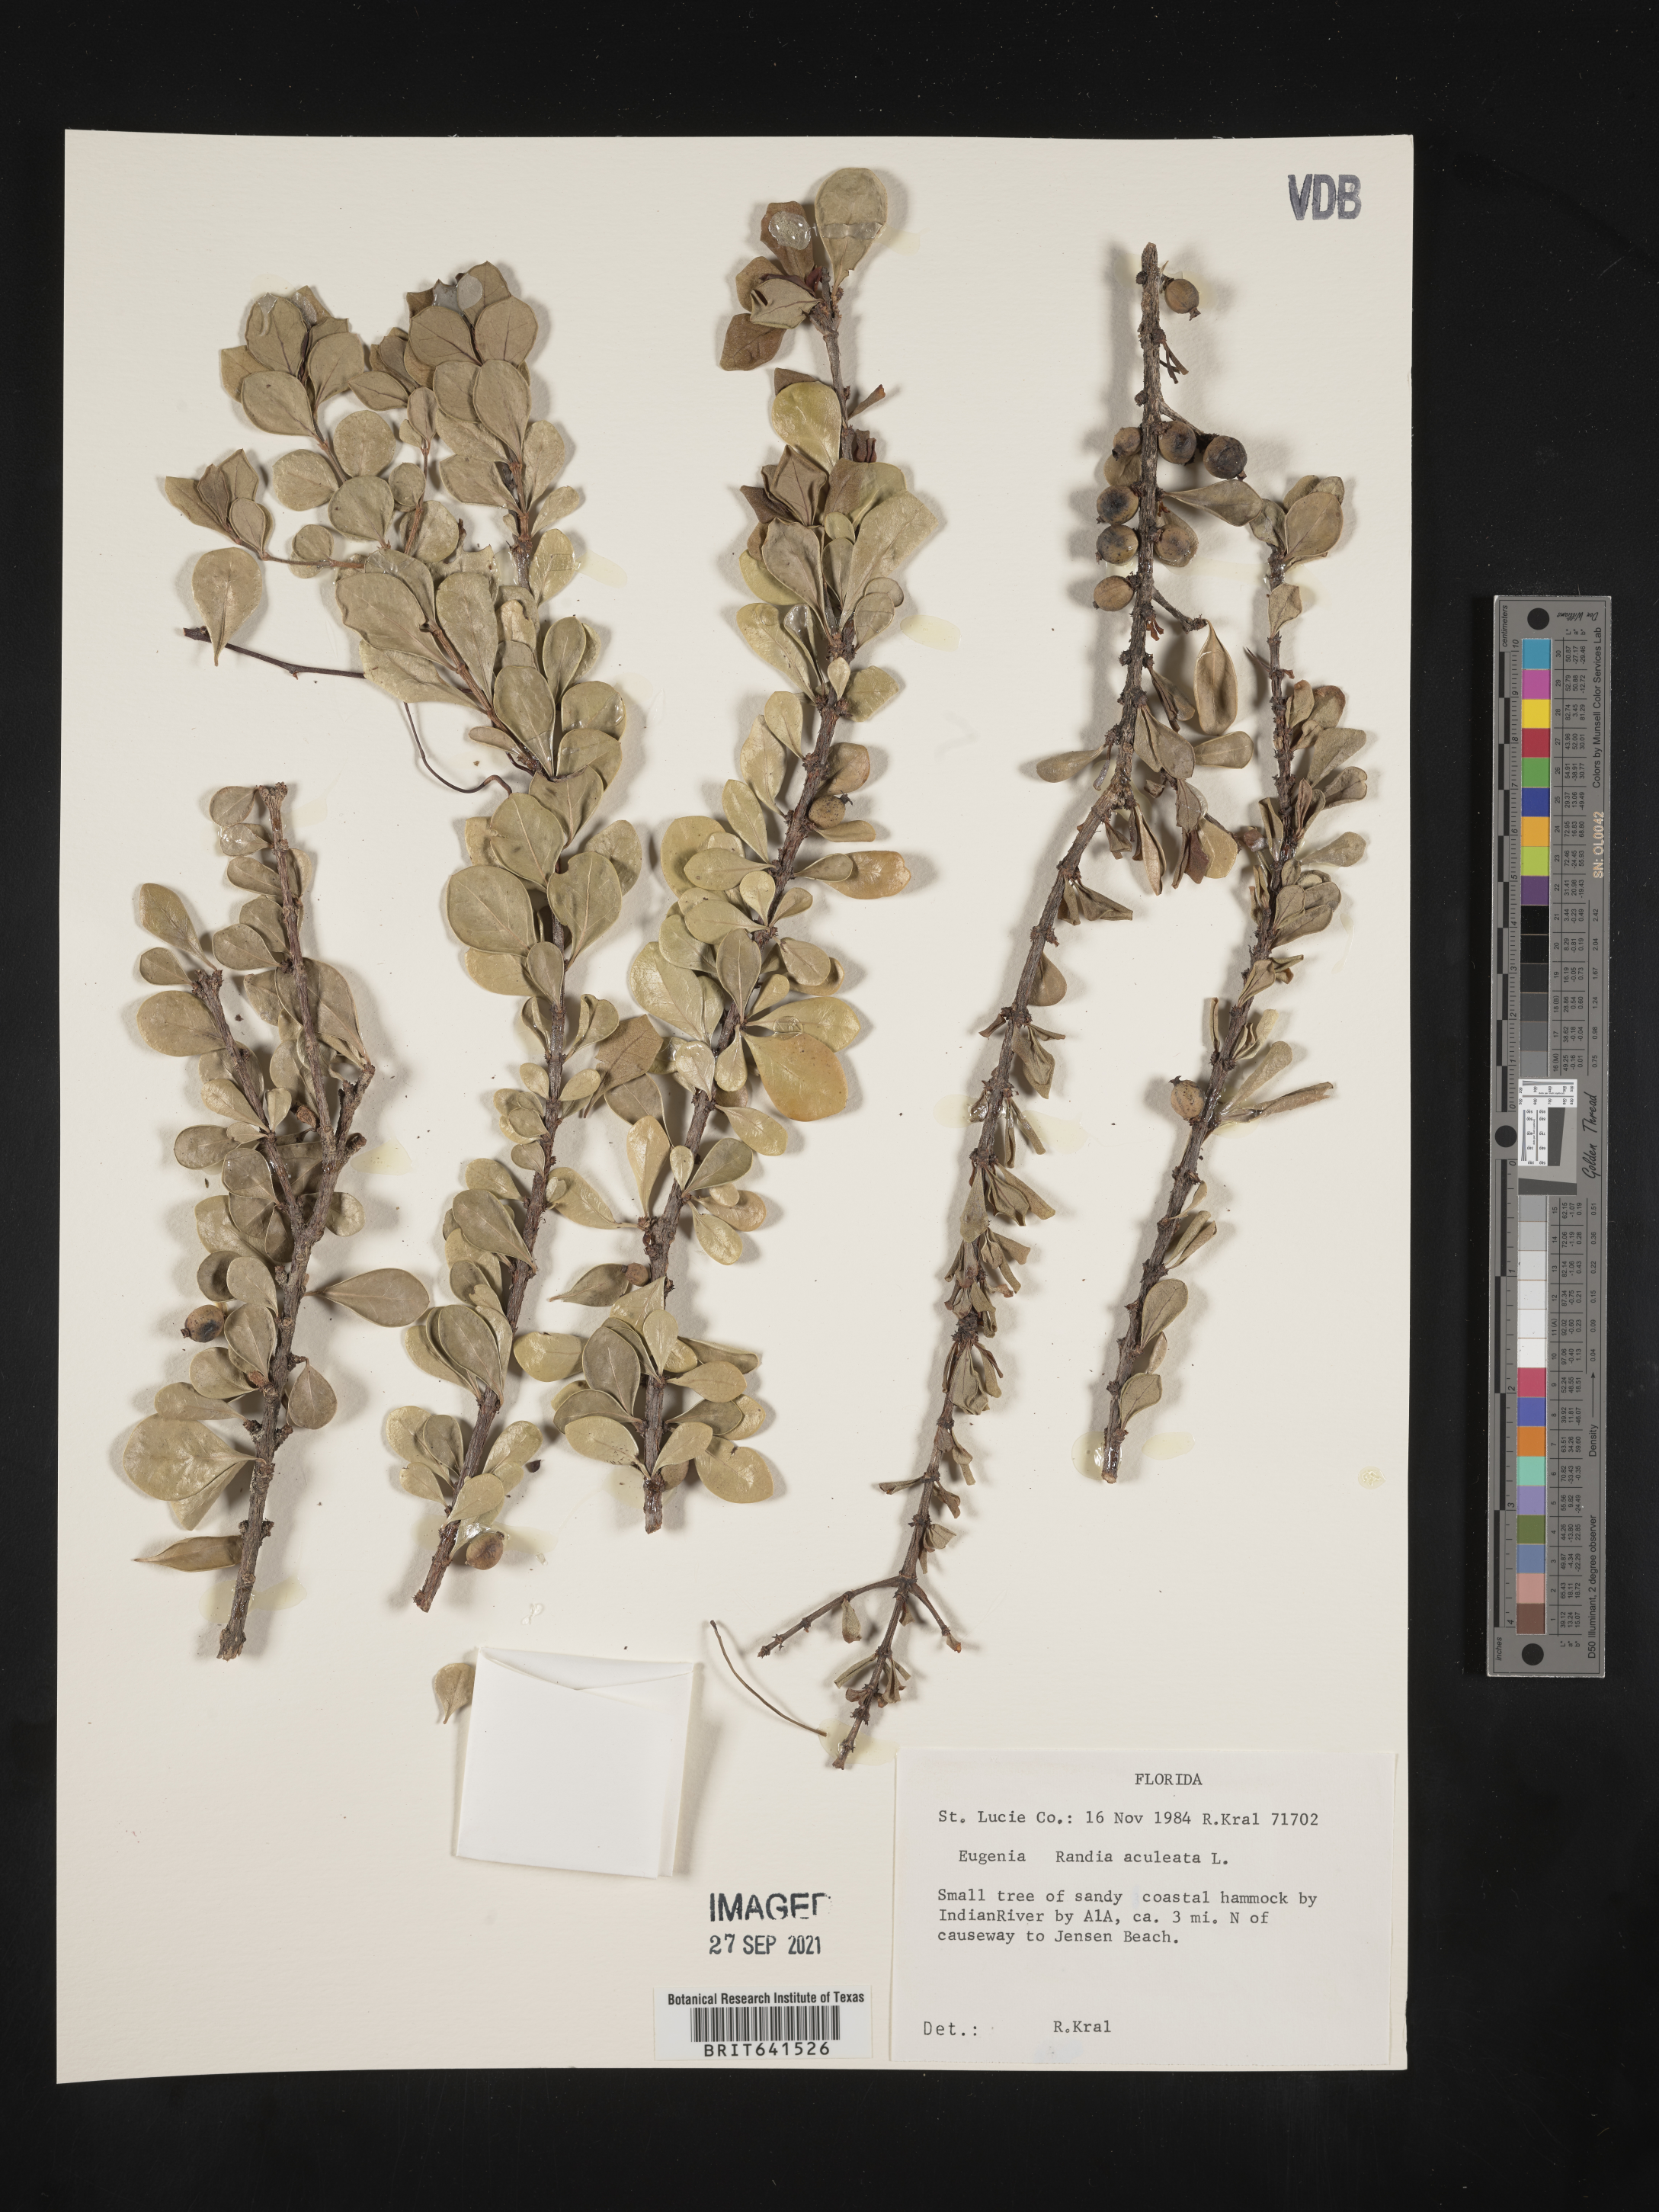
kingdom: Plantae
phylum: Tracheophyta
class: Magnoliopsida
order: Gentianales
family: Rubiaceae
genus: Randia
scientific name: Randia aculeata
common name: Inkberry
